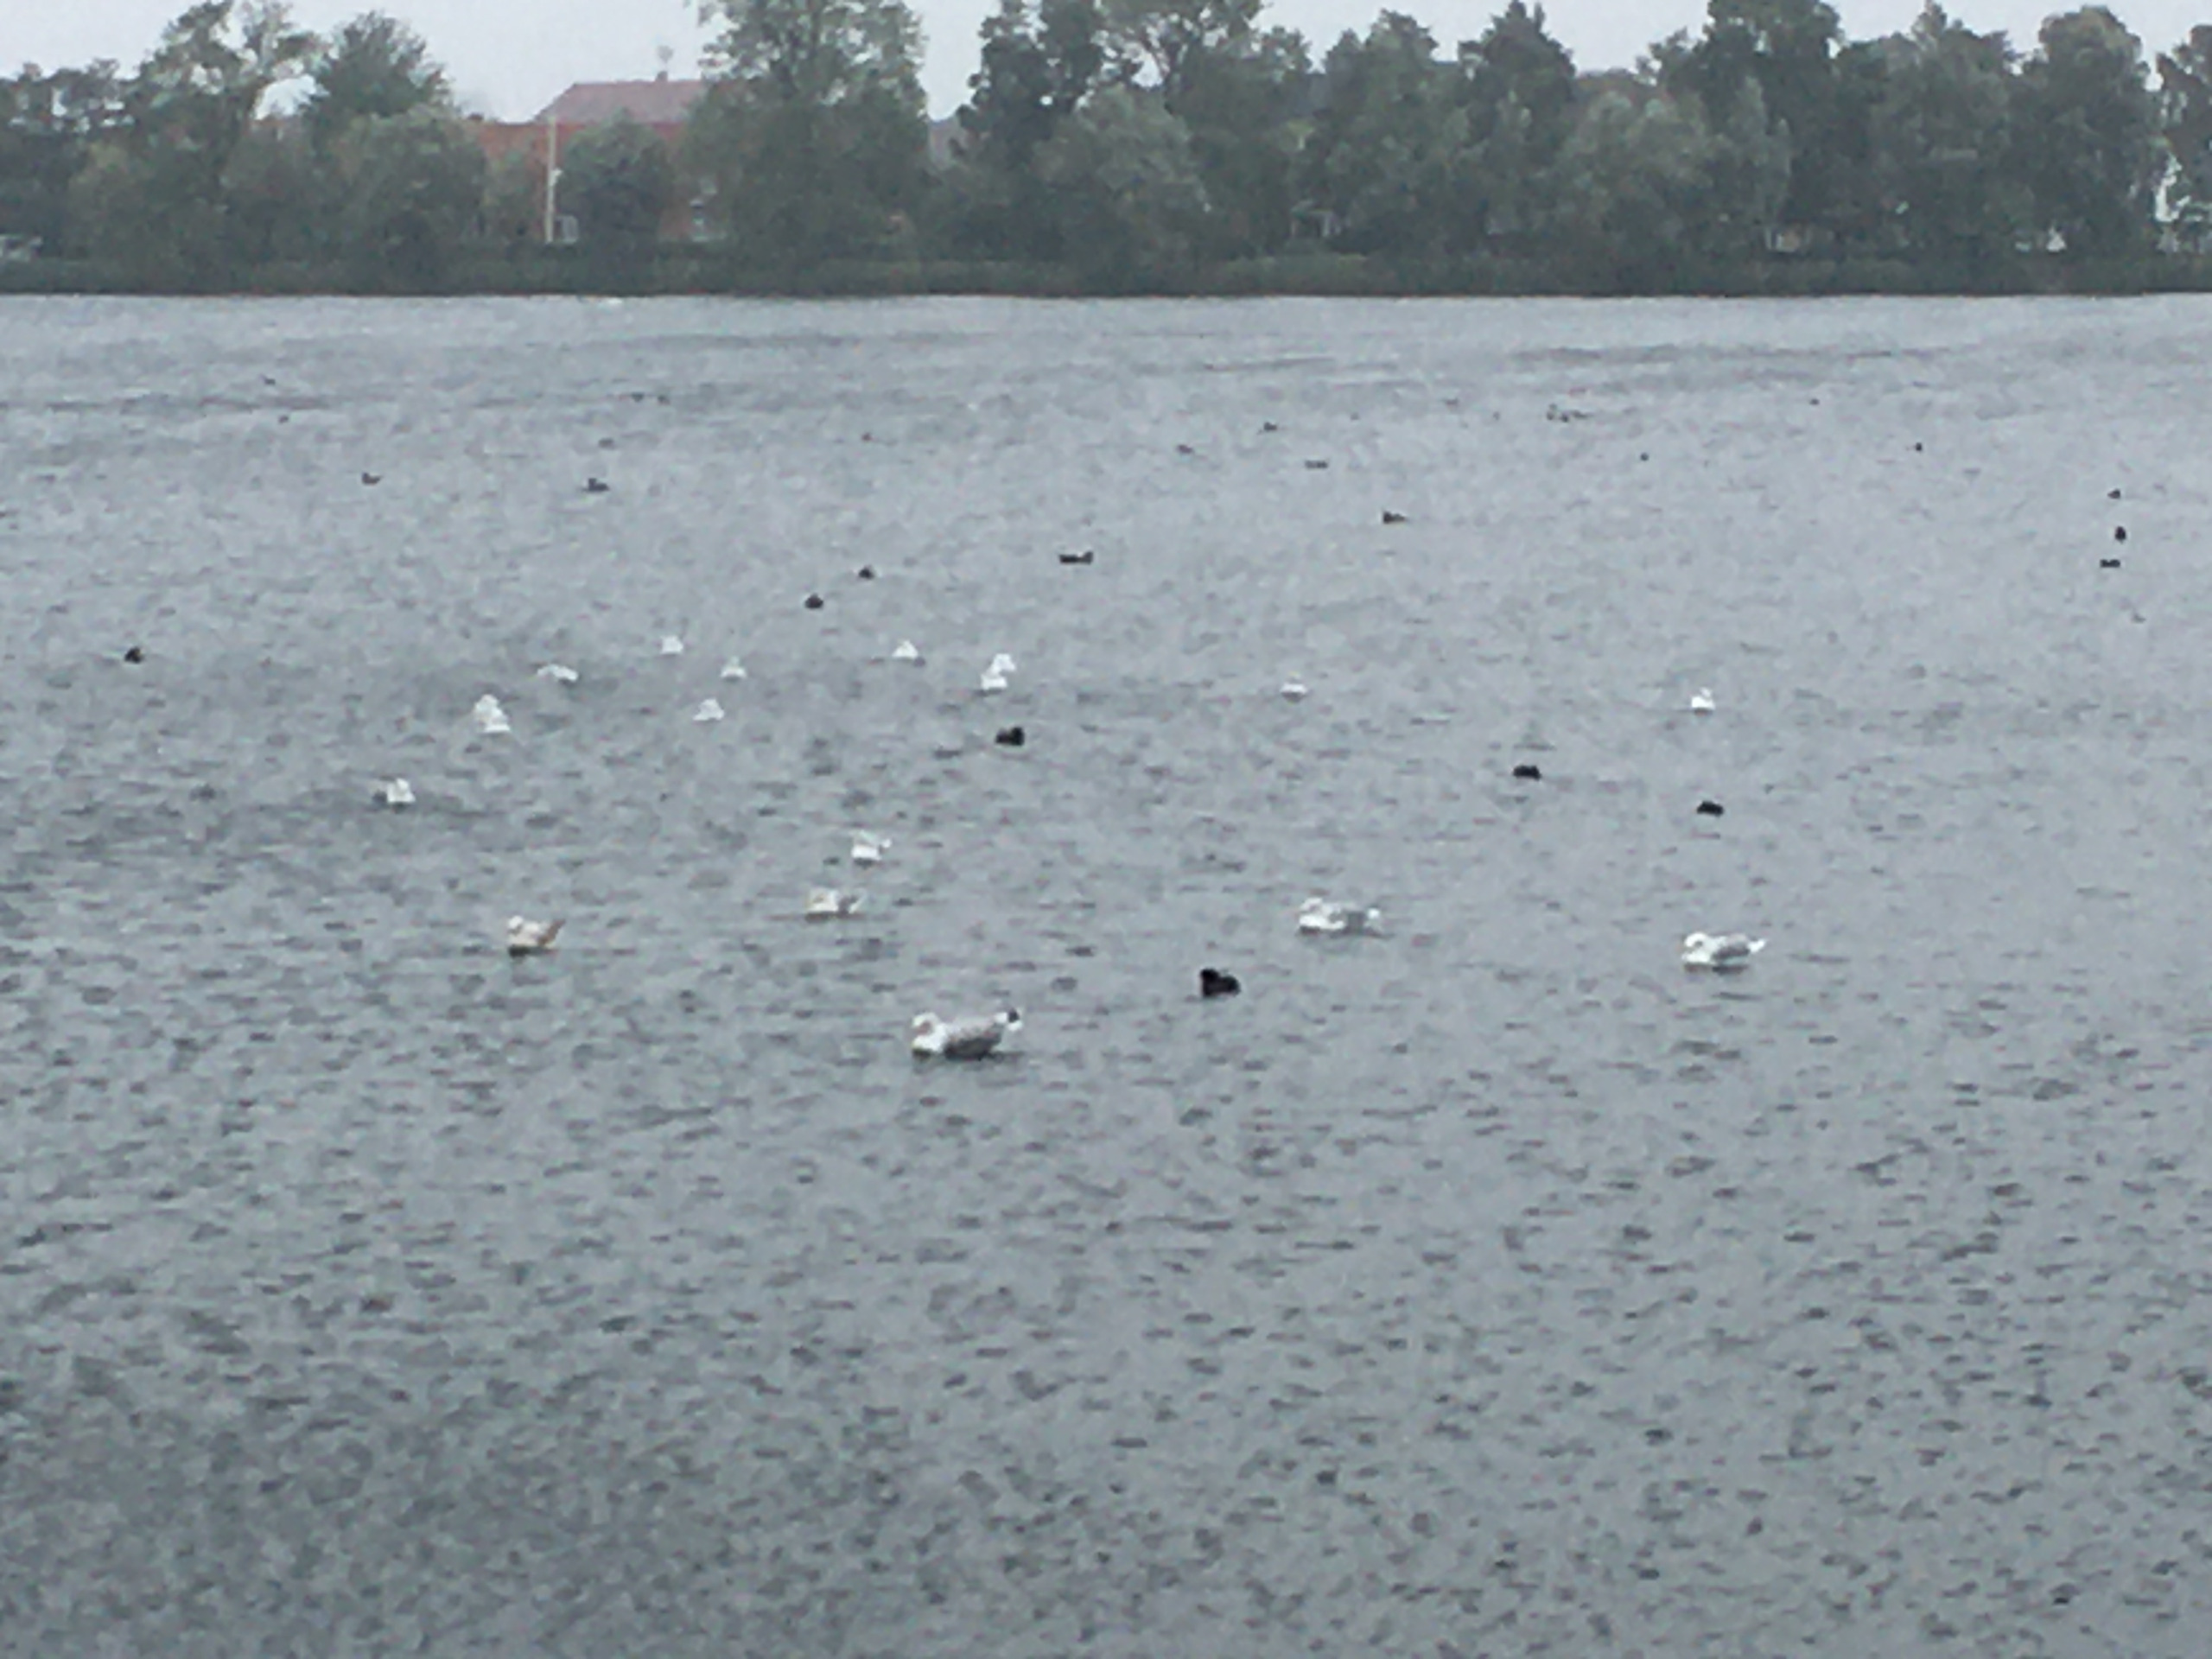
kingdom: Animalia
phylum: Chordata
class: Aves
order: Gruiformes
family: Rallidae
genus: Fulica
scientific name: Fulica atra
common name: Blishøne
